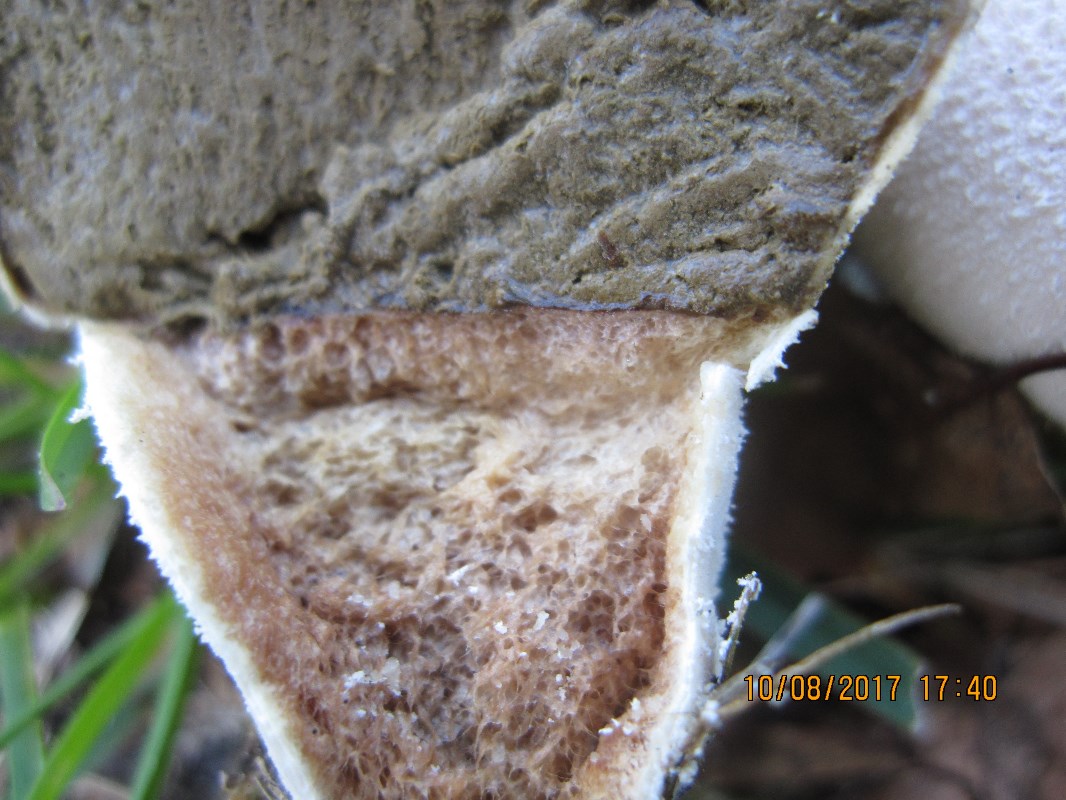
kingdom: Fungi
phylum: Basidiomycota
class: Agaricomycetes
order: Agaricales
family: Lycoperdaceae
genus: Lycoperdon
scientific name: Lycoperdon pratense
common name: flad støvbold
